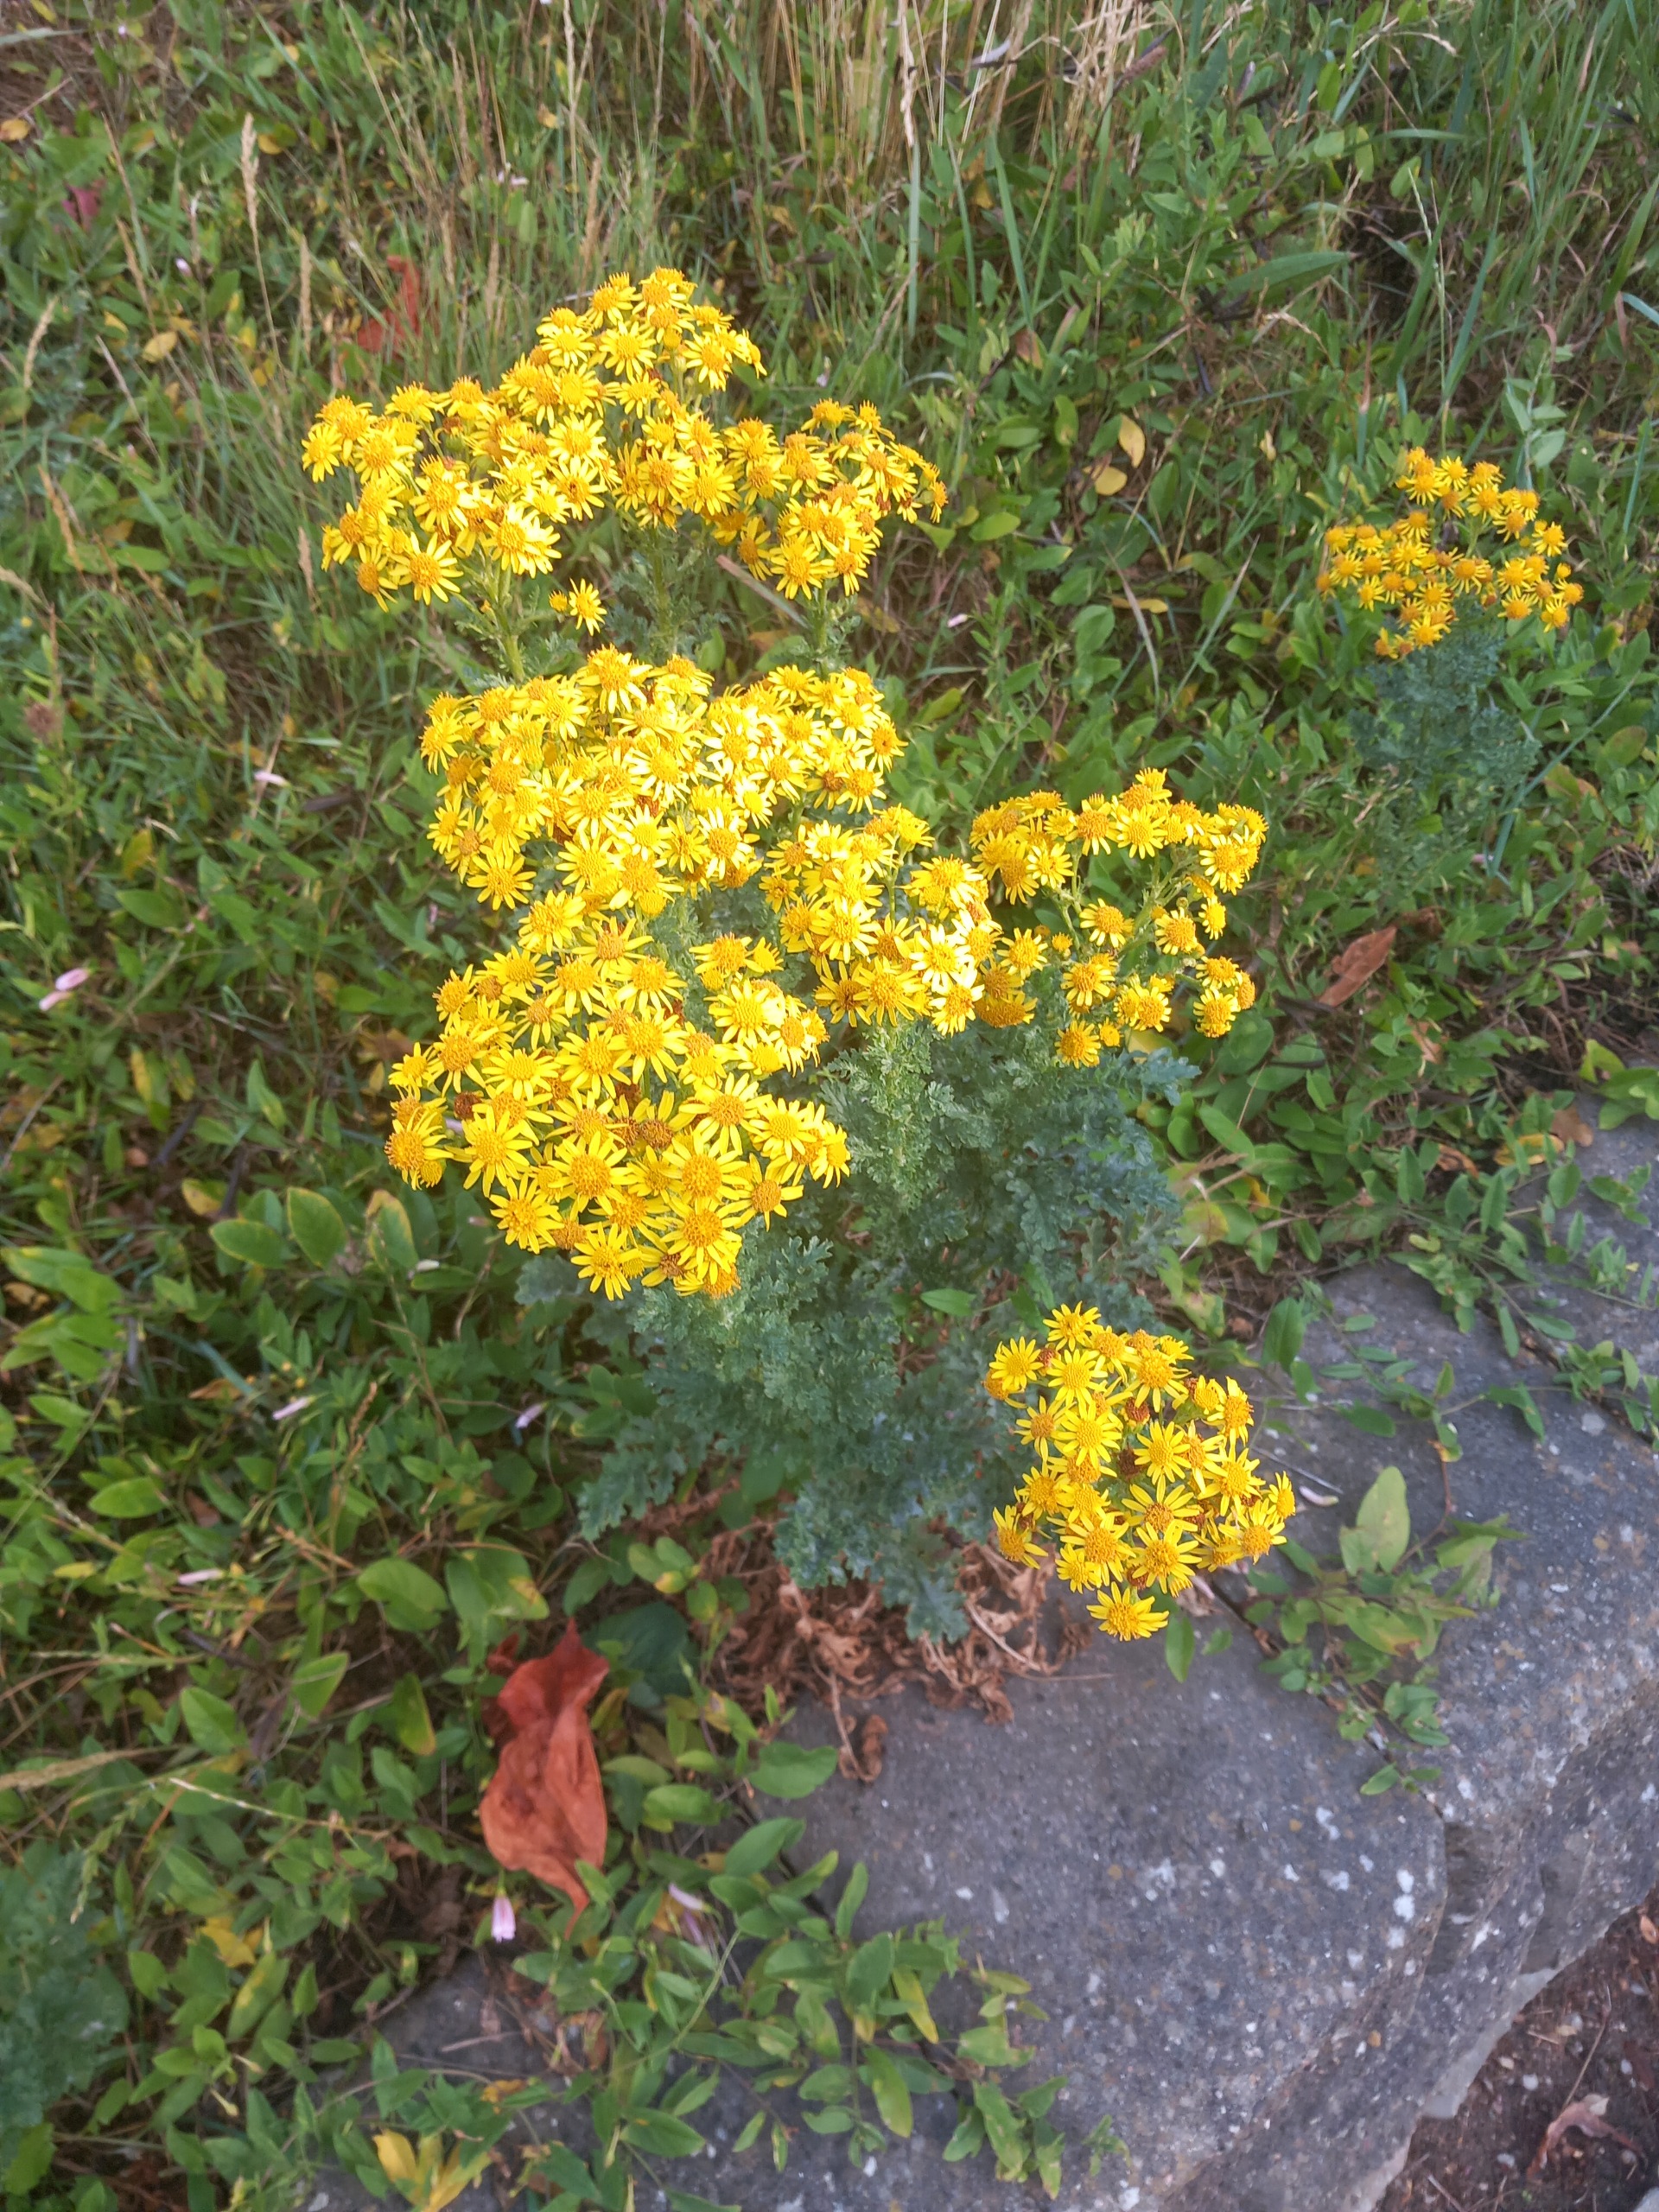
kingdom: Plantae
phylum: Tracheophyta
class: Magnoliopsida
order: Asterales
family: Asteraceae
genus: Jacobaea
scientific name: Jacobaea vulgaris
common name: Eng-brandbæger
